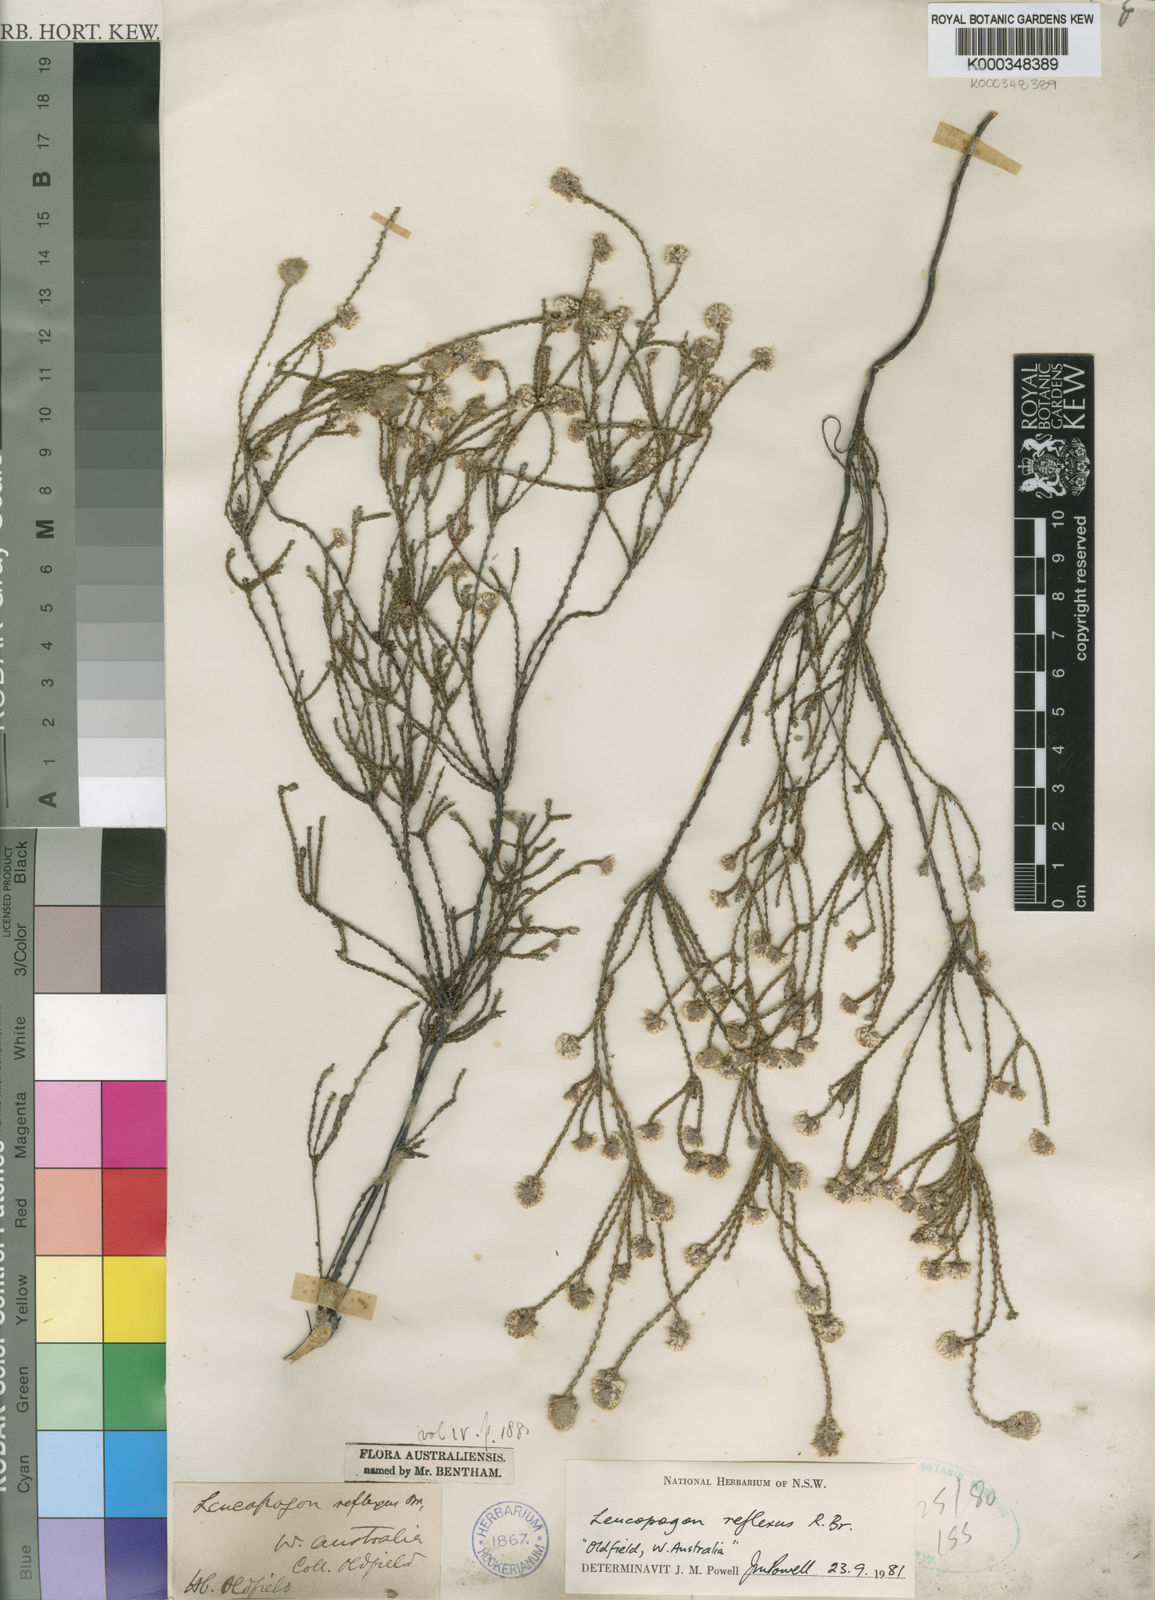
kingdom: Plantae
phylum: Tracheophyta
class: Magnoliopsida
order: Ericales
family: Ericaceae
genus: Leucopogon
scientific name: Leucopogon reflexus
